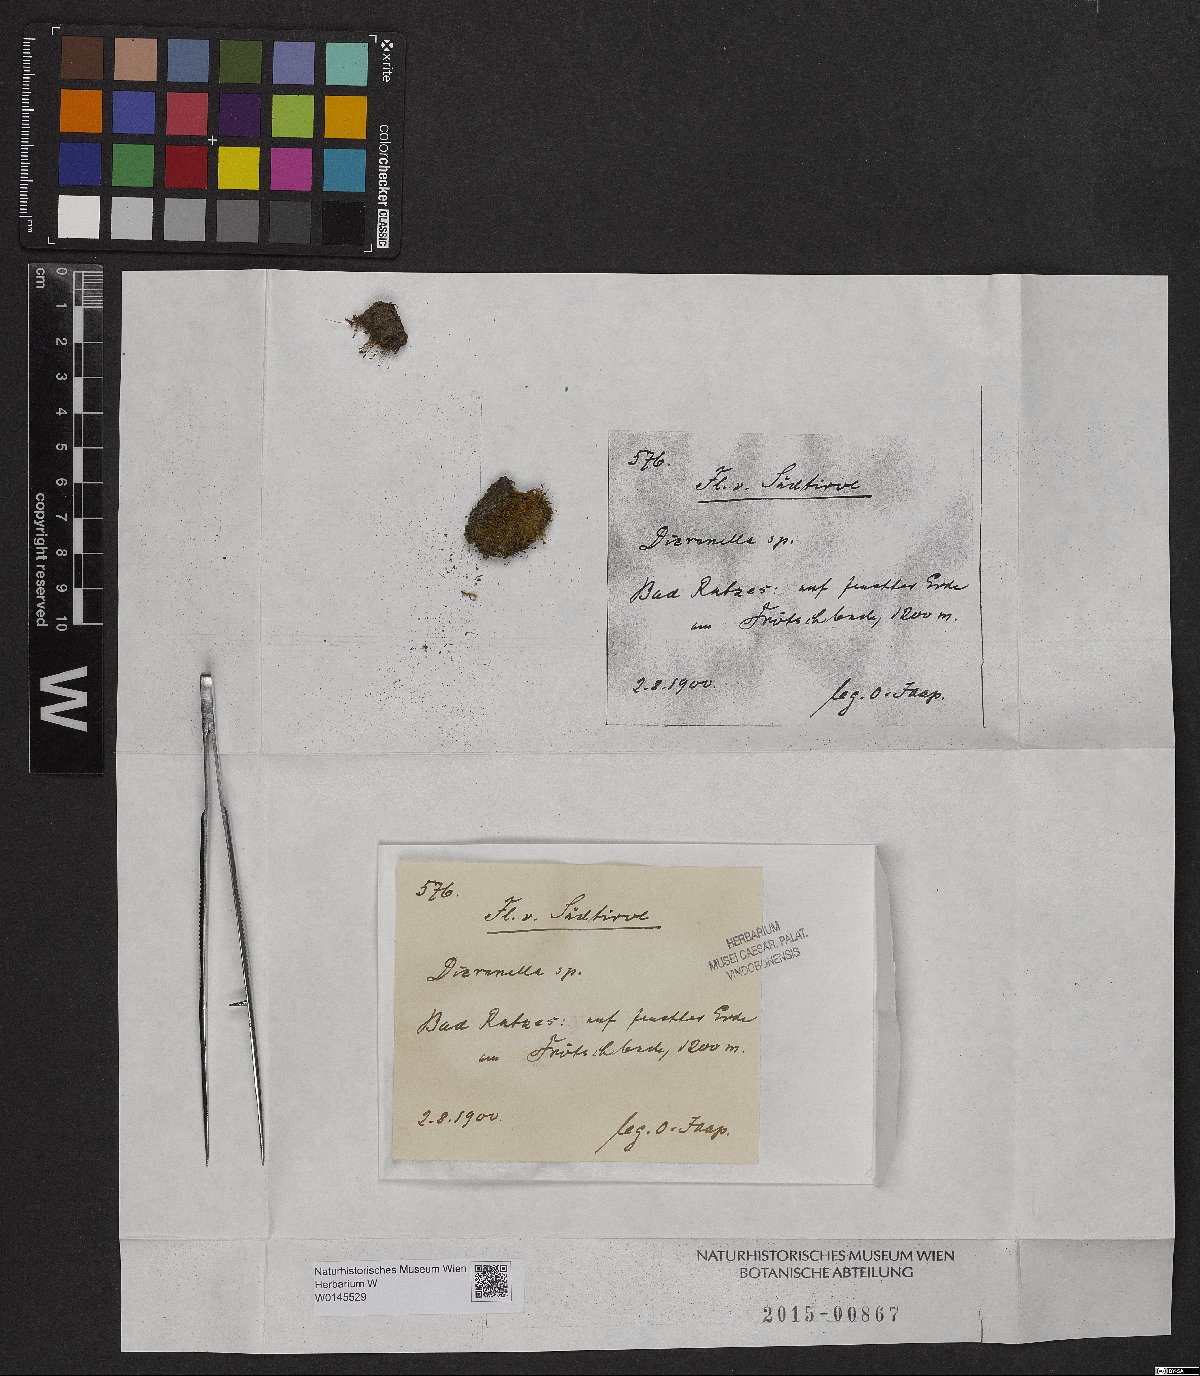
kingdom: Plantae
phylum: Bryophyta
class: Bryopsida
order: Dicranales
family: Dicranellaceae
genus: Dicranella
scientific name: Dicranella
